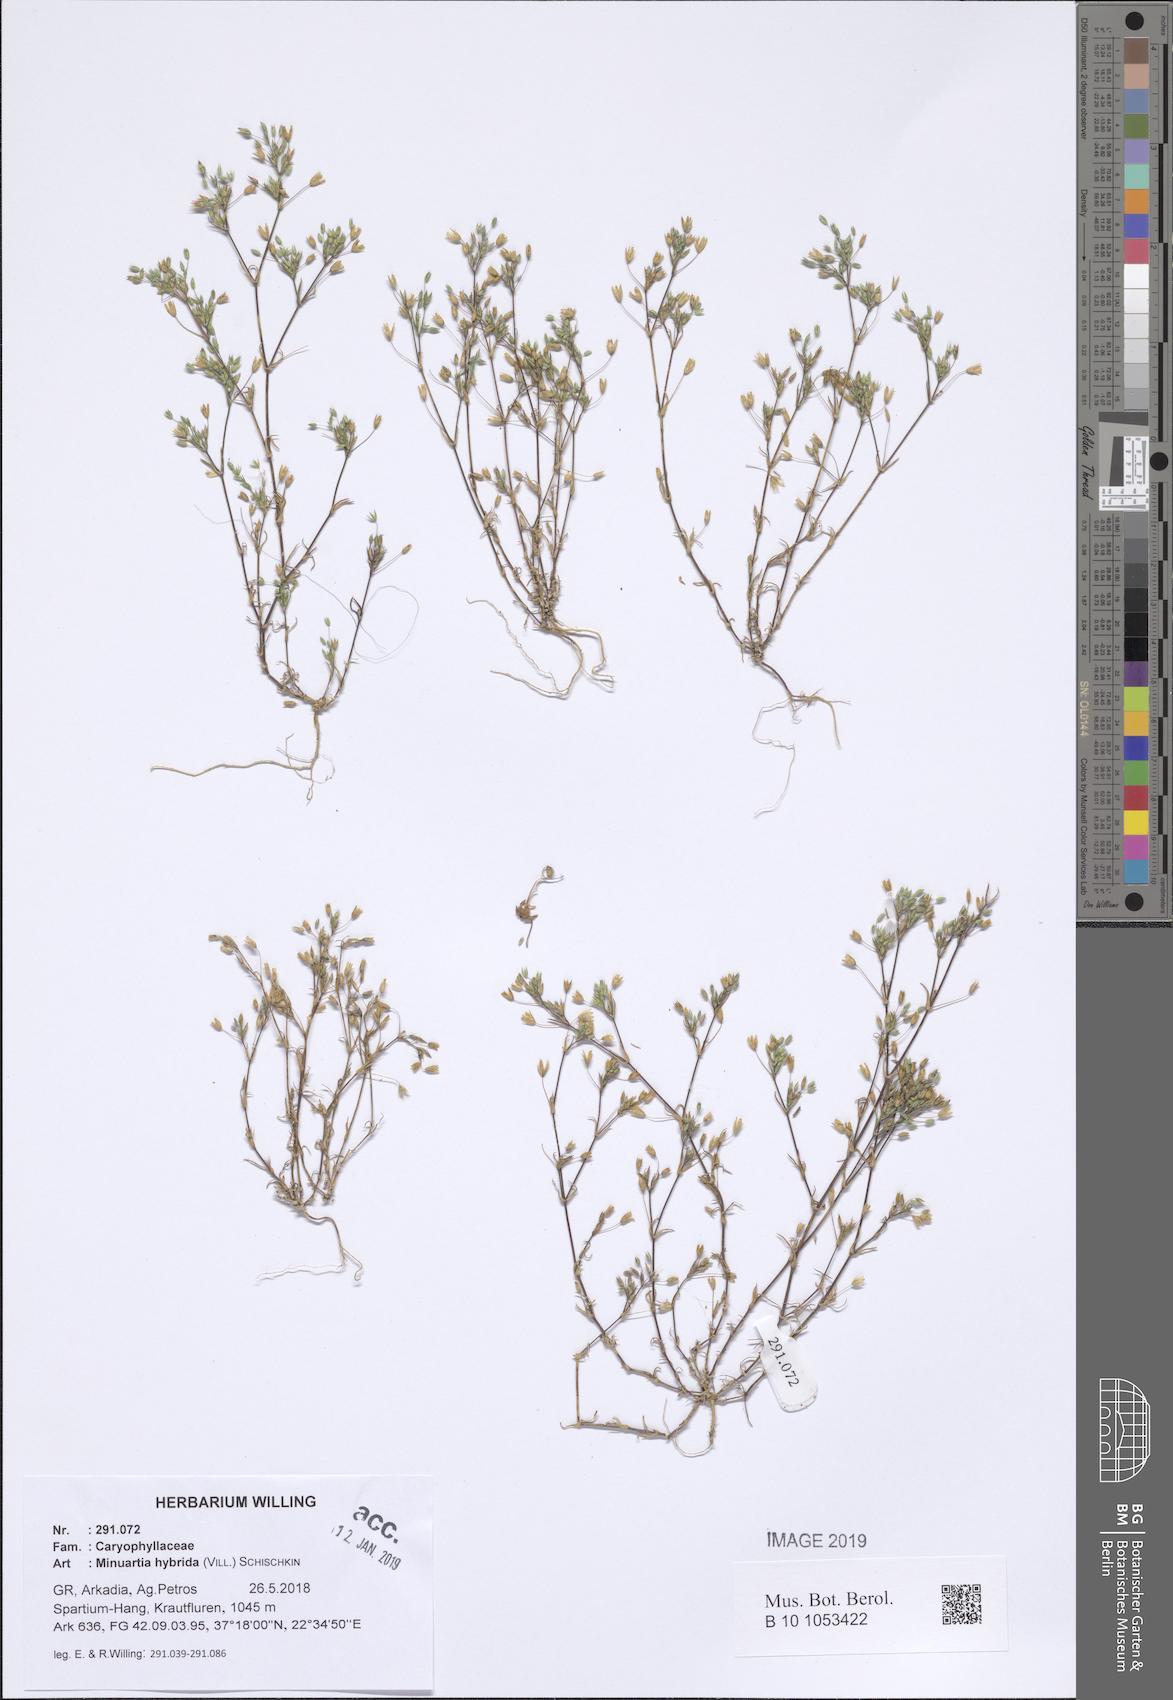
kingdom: Plantae
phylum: Tracheophyta
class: Magnoliopsida
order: Caryophyllales
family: Caryophyllaceae
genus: Sabulina
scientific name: Sabulina tenuifolia
